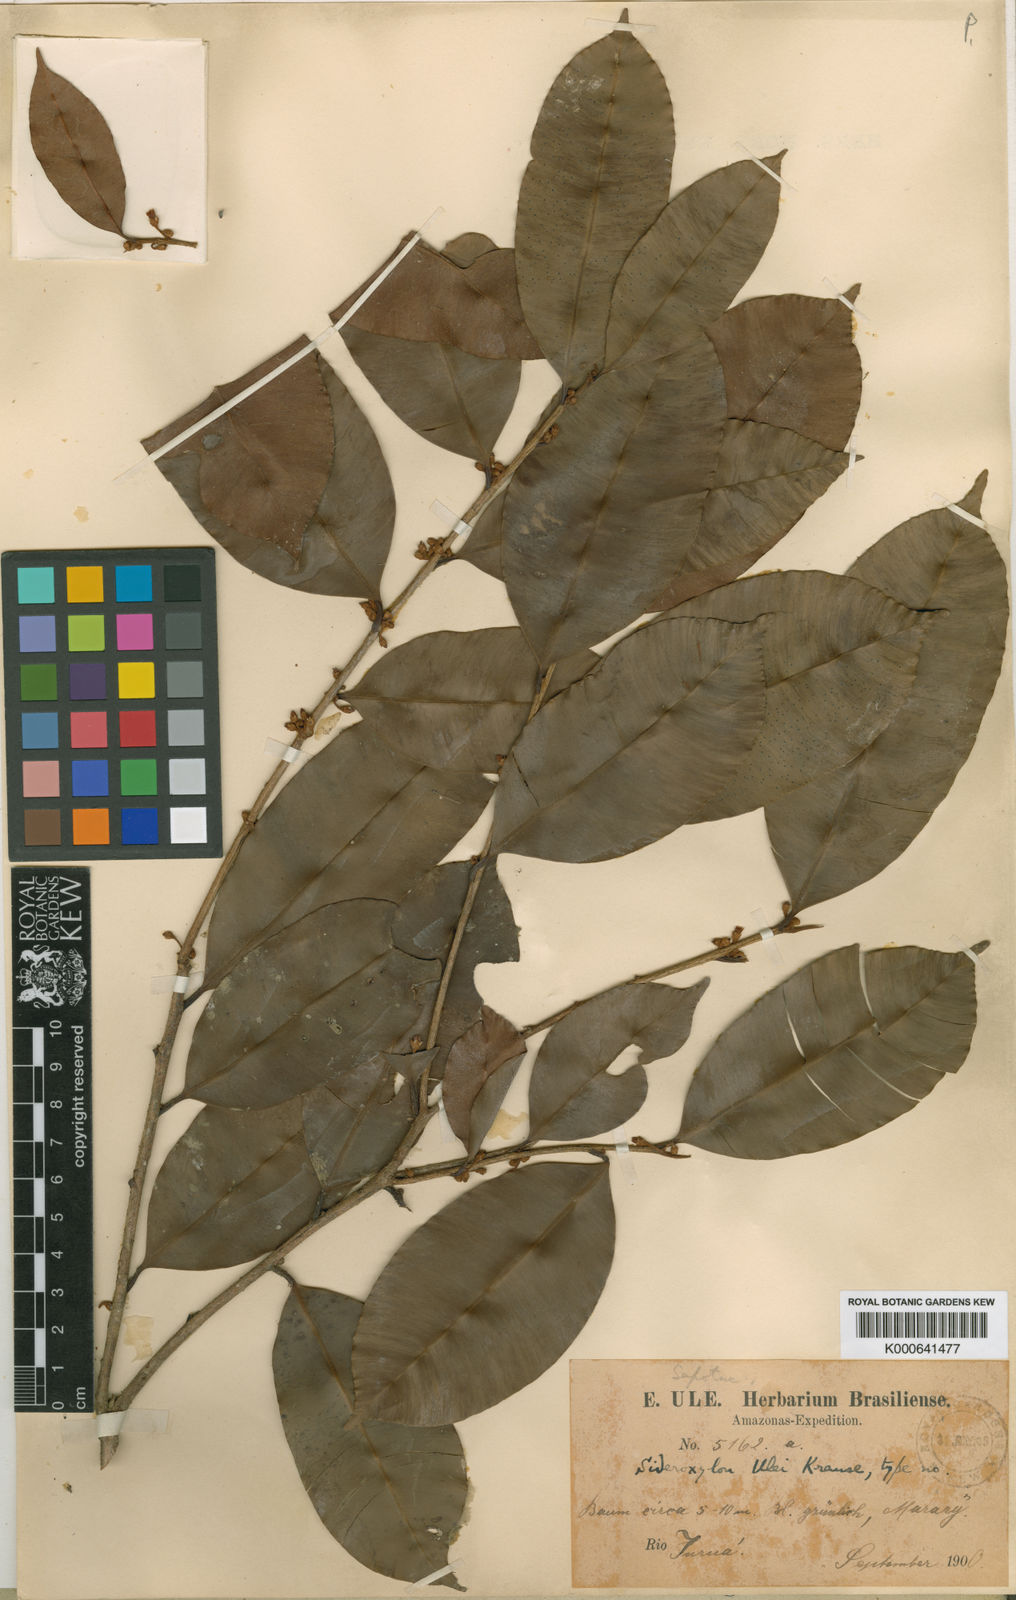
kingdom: Plantae
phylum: Tracheophyta
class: Magnoliopsida
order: Ericales
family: Sapotaceae
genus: Micropholis
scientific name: Micropholis egensis
